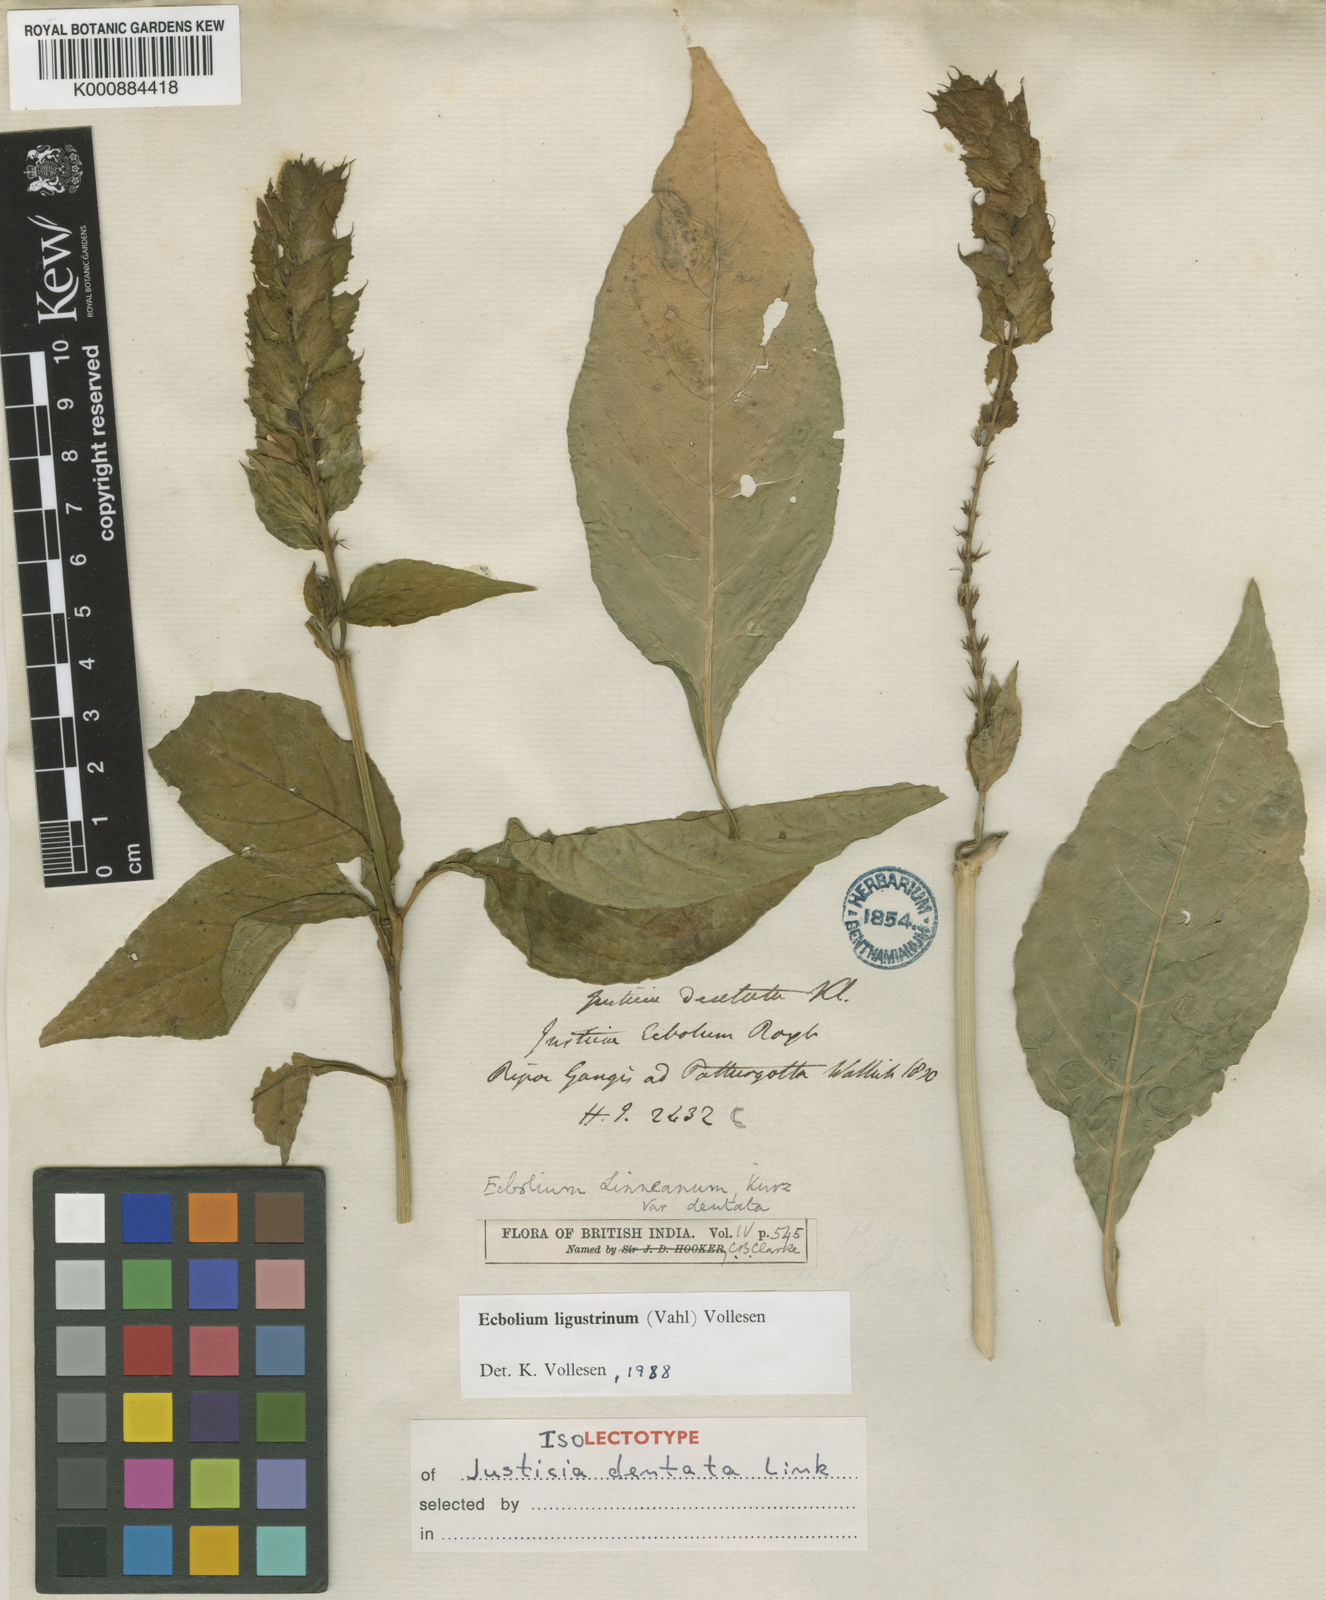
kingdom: Plantae
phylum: Tracheophyta
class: Magnoliopsida
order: Lamiales
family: Acanthaceae
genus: Ecbolium
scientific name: Ecbolium ligustrinum
